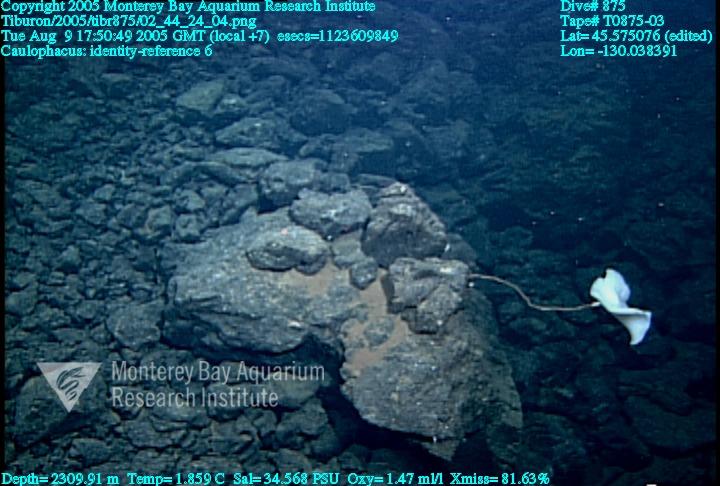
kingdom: Animalia
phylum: Porifera
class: Hexactinellida
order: Lyssacinosida
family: Rossellidae
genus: Caulophacus
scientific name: Caulophacus
